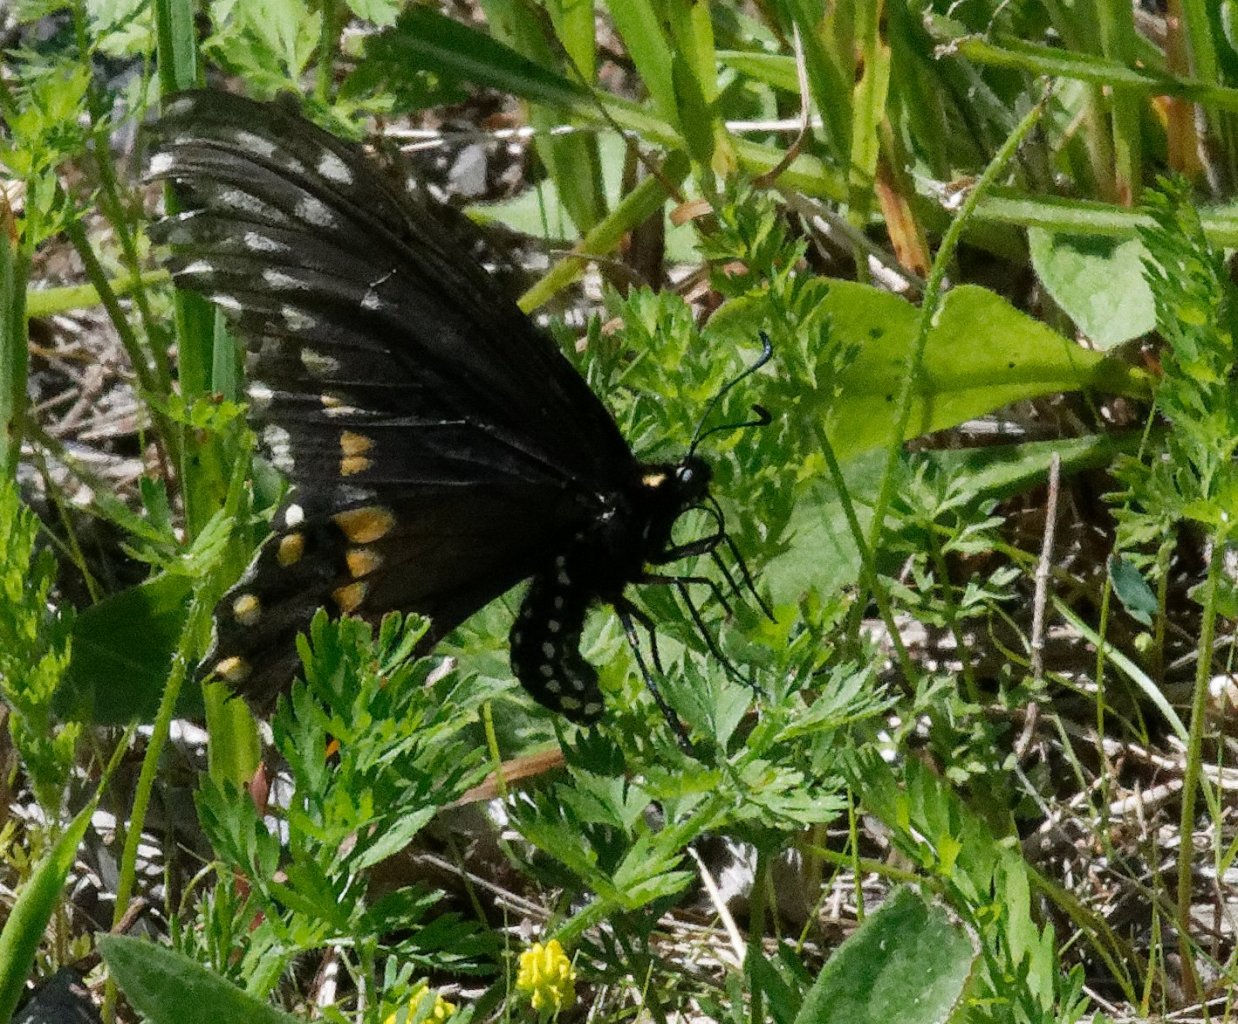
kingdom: Animalia
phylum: Arthropoda
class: Insecta
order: Lepidoptera
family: Papilionidae
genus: Papilio
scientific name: Papilio polyxenes
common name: Black Swallowtail
